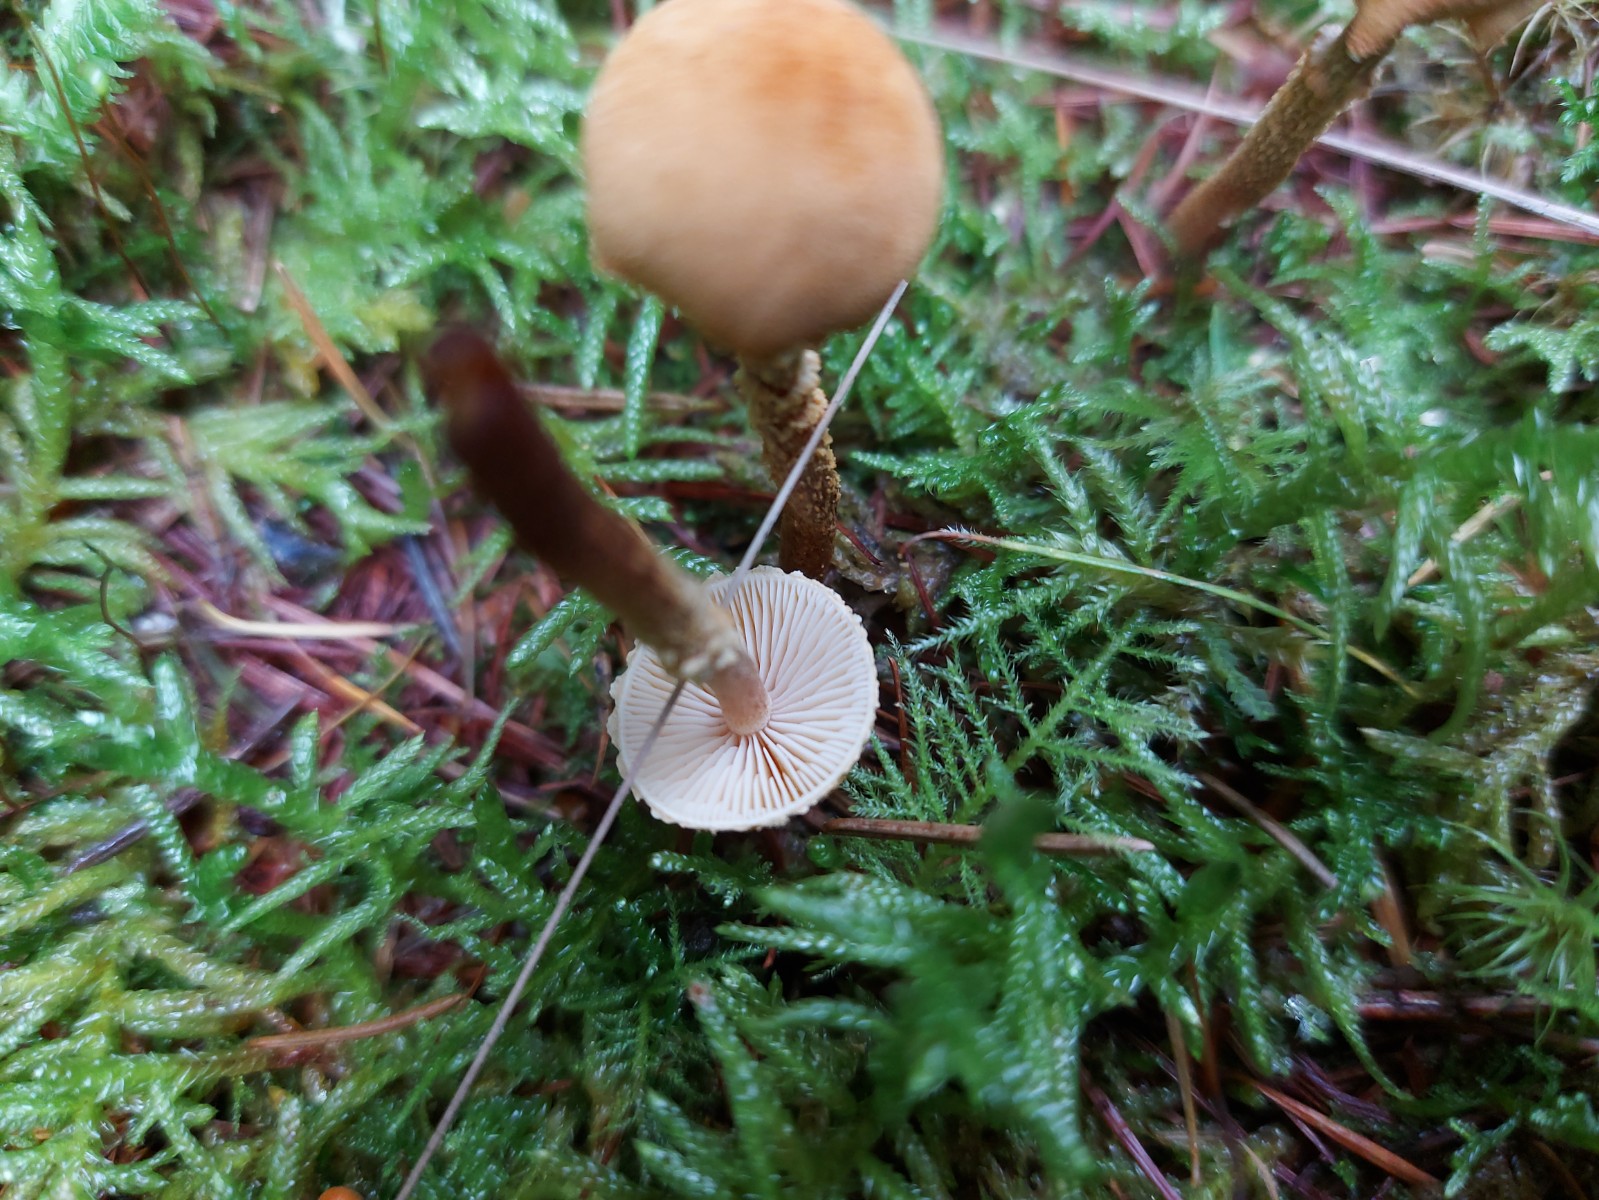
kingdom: Fungi
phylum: Basidiomycota
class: Agaricomycetes
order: Agaricales
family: Tricholomataceae
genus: Cystoderma
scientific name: Cystoderma amianthinum
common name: okkergul grynhat
